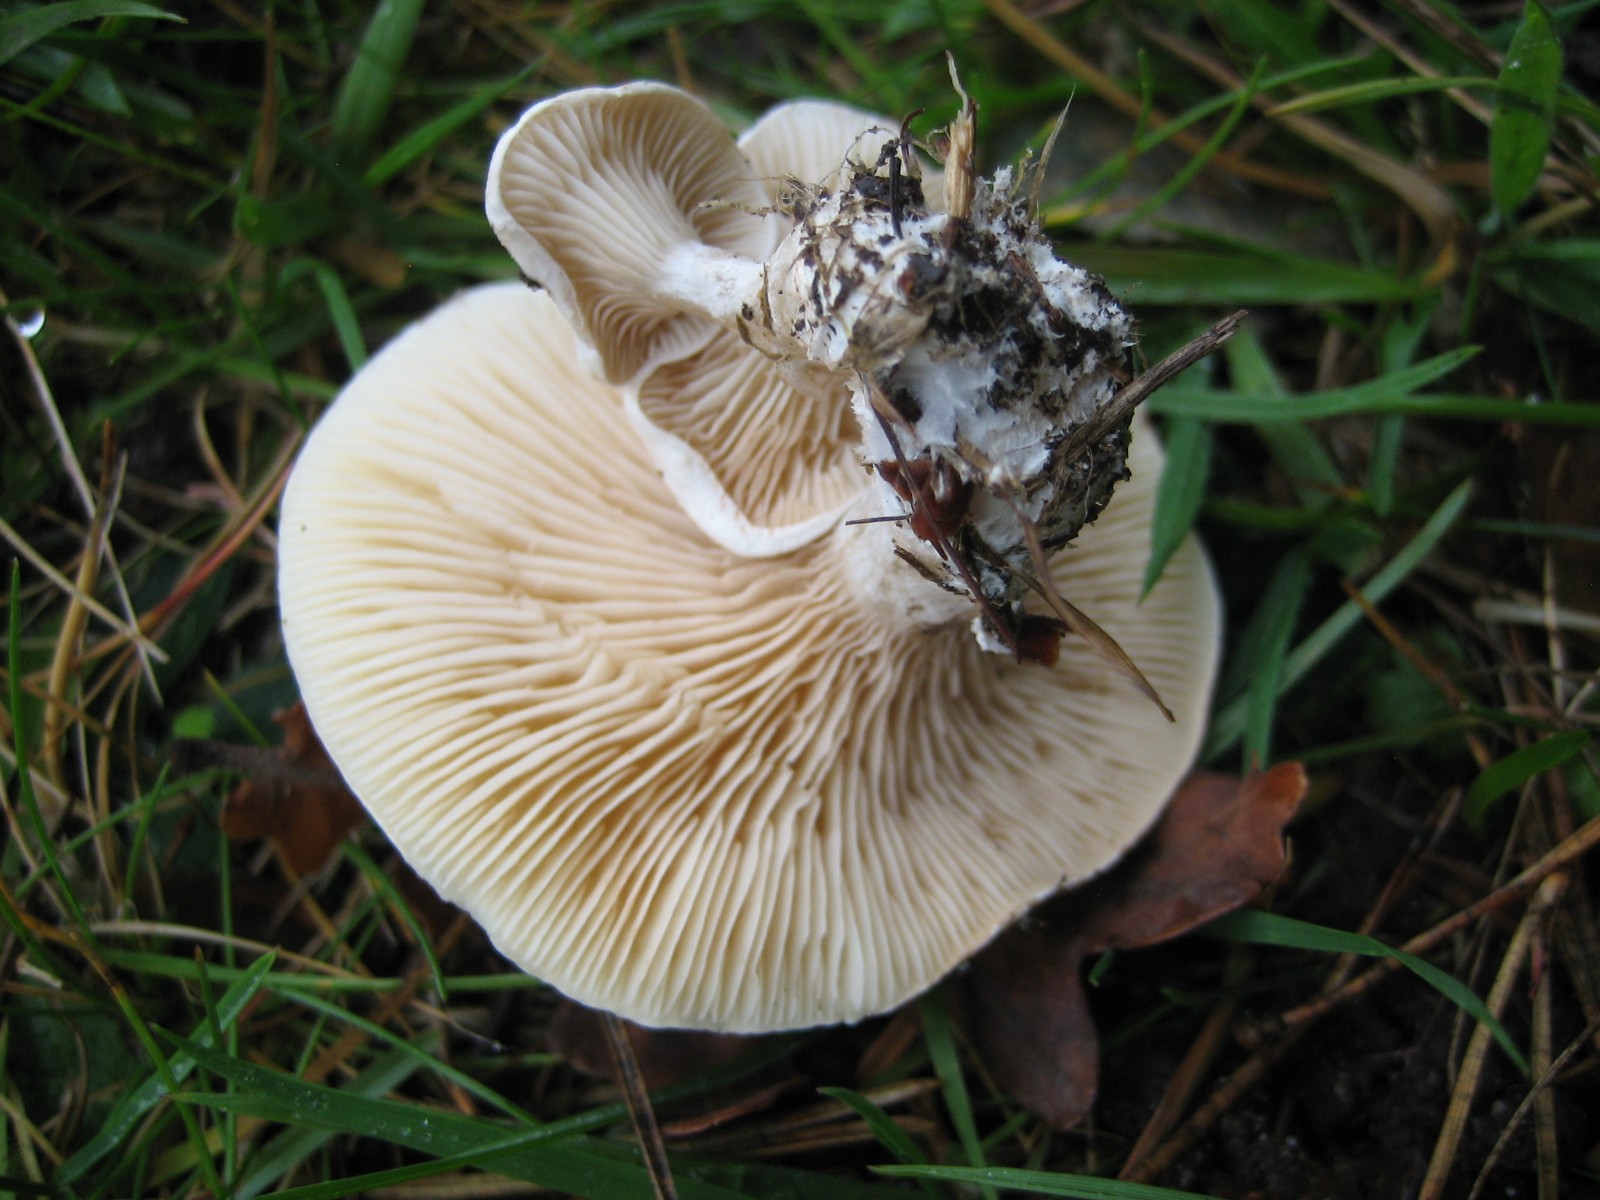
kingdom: Fungi
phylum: Basidiomycota
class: Agaricomycetes
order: Agaricales
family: Entolomataceae
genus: Clitopilus
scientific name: Clitopilus prunulus
